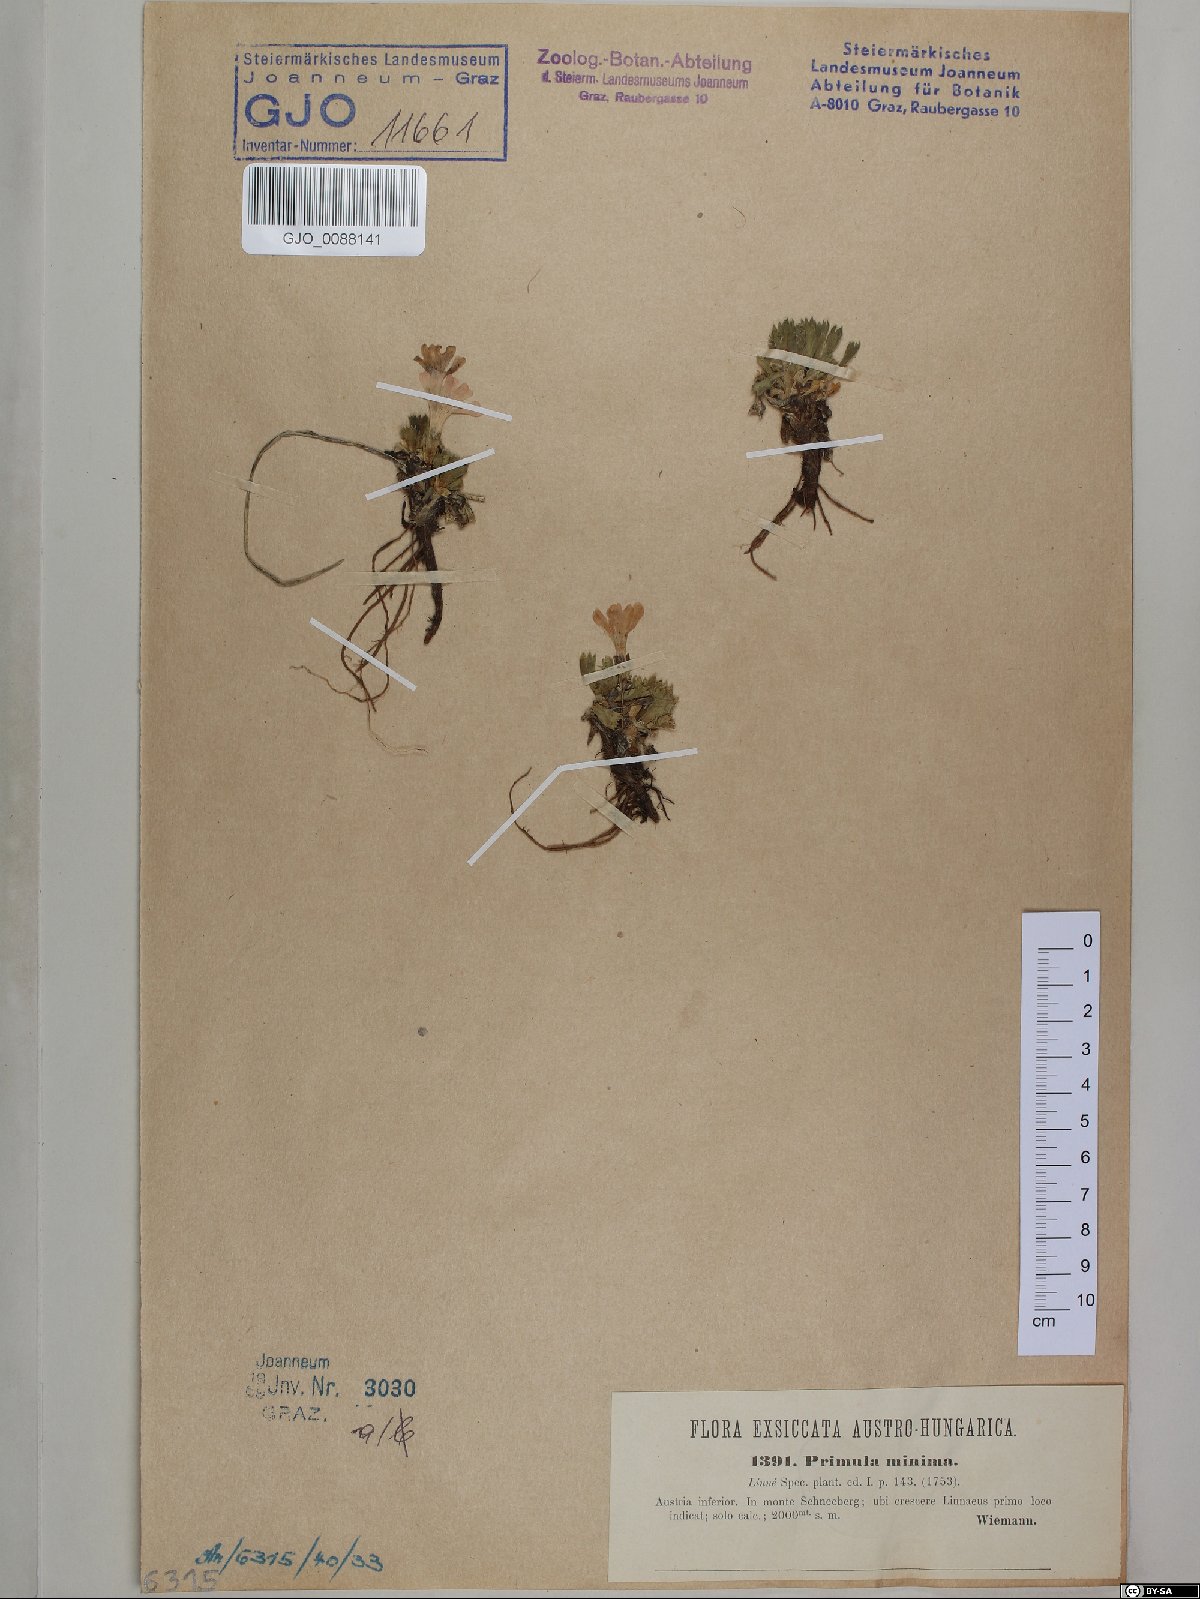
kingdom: Plantae
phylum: Tracheophyta
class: Magnoliopsida
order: Ericales
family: Primulaceae
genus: Primula
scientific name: Primula minima
